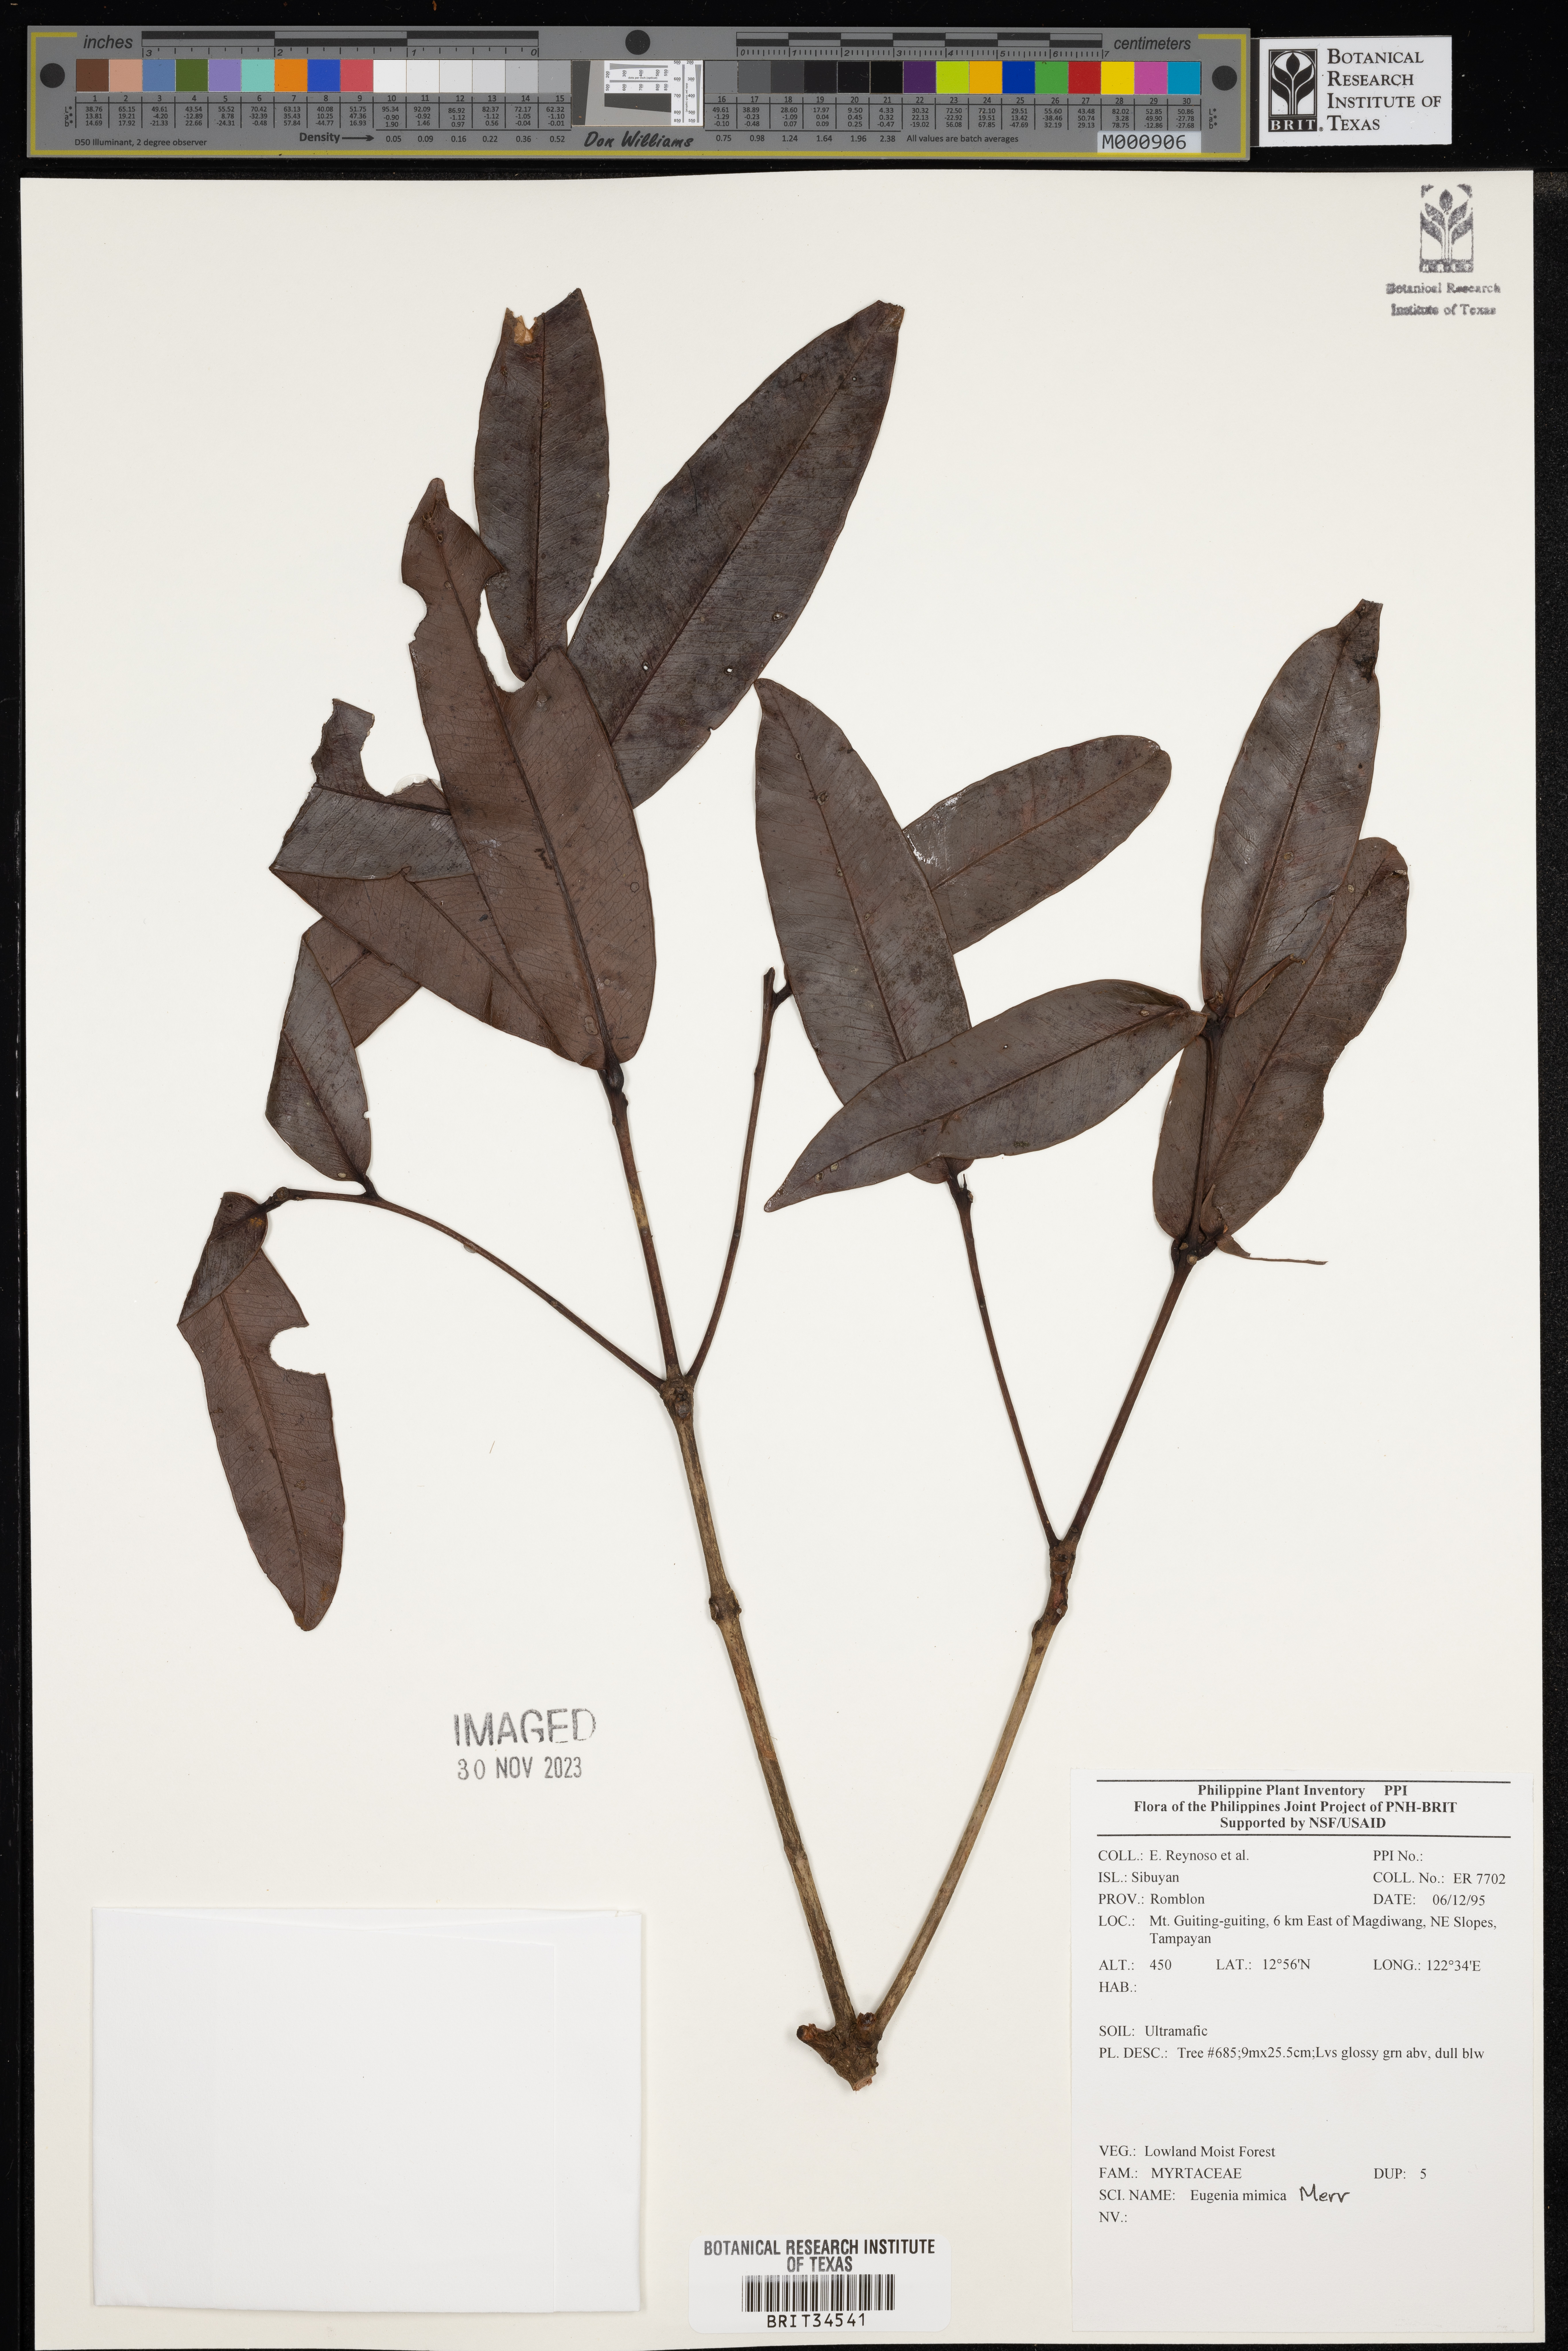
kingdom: Plantae
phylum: Tracheophyta
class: Magnoliopsida
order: Myrtales
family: Myrtaceae
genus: Eugenia
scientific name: Eugenia
